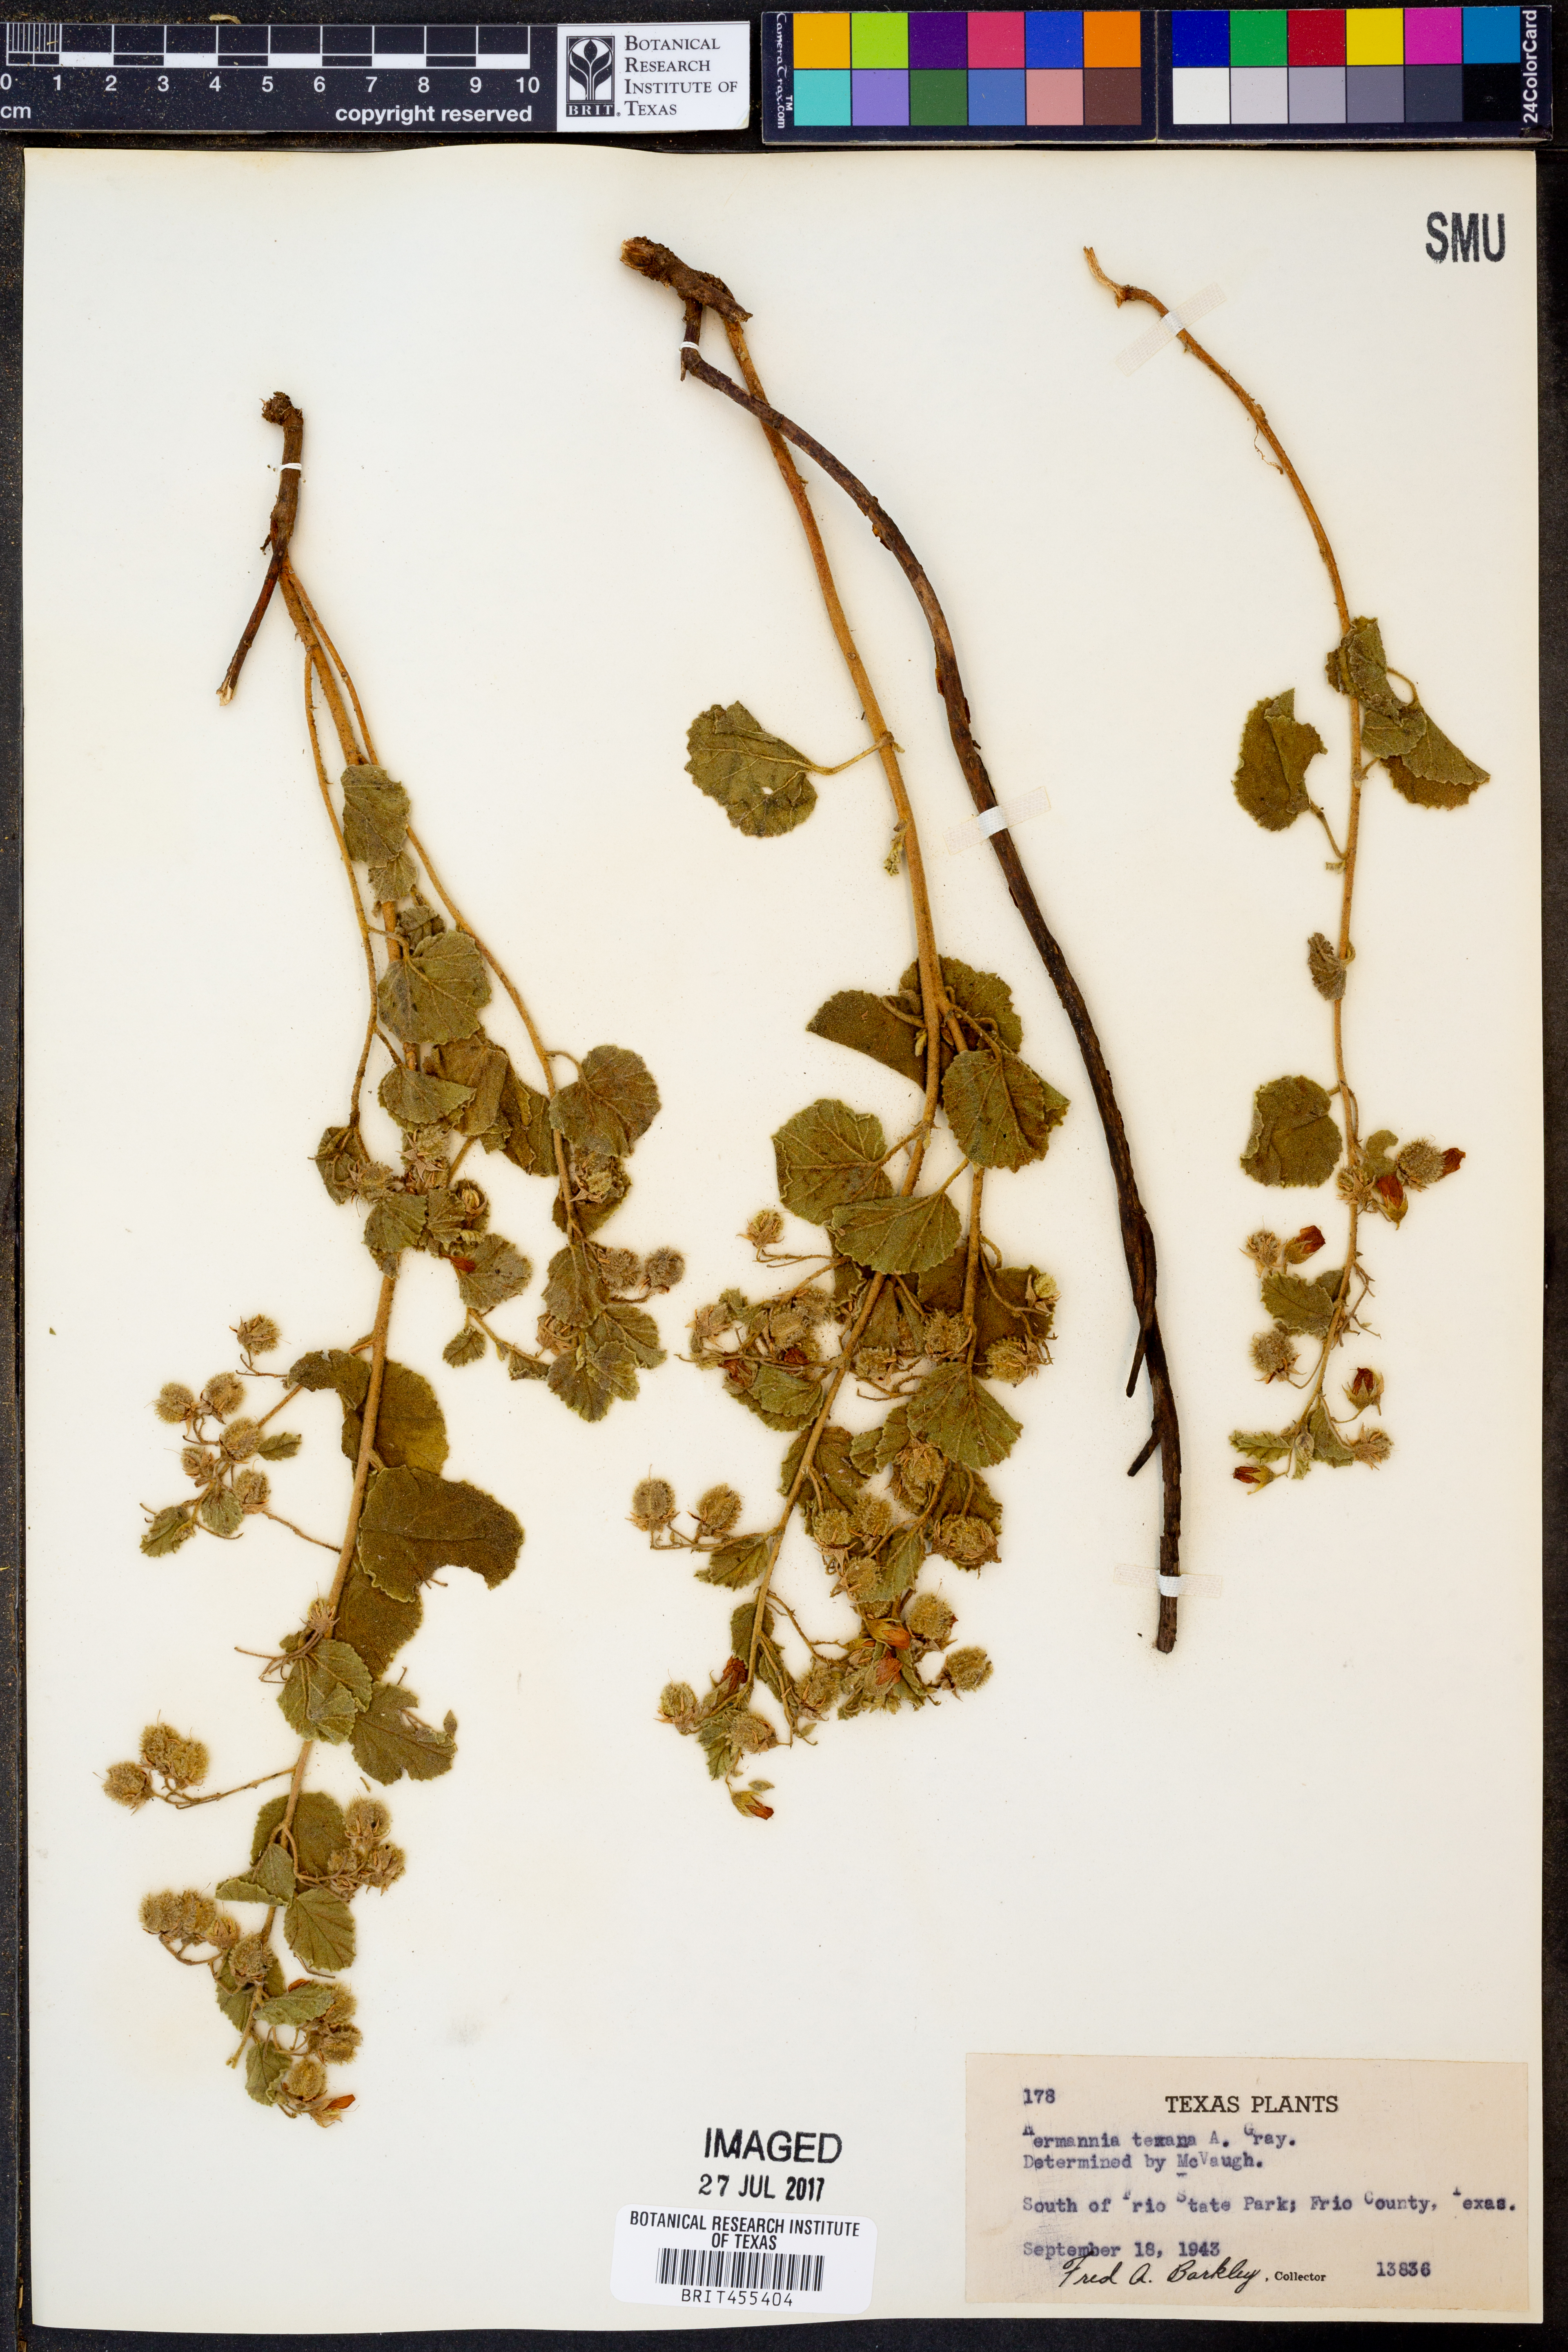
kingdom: Plantae
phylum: Tracheophyta
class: Magnoliopsida
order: Malvales
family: Malvaceae
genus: Hermannia
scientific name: Hermannia texana
